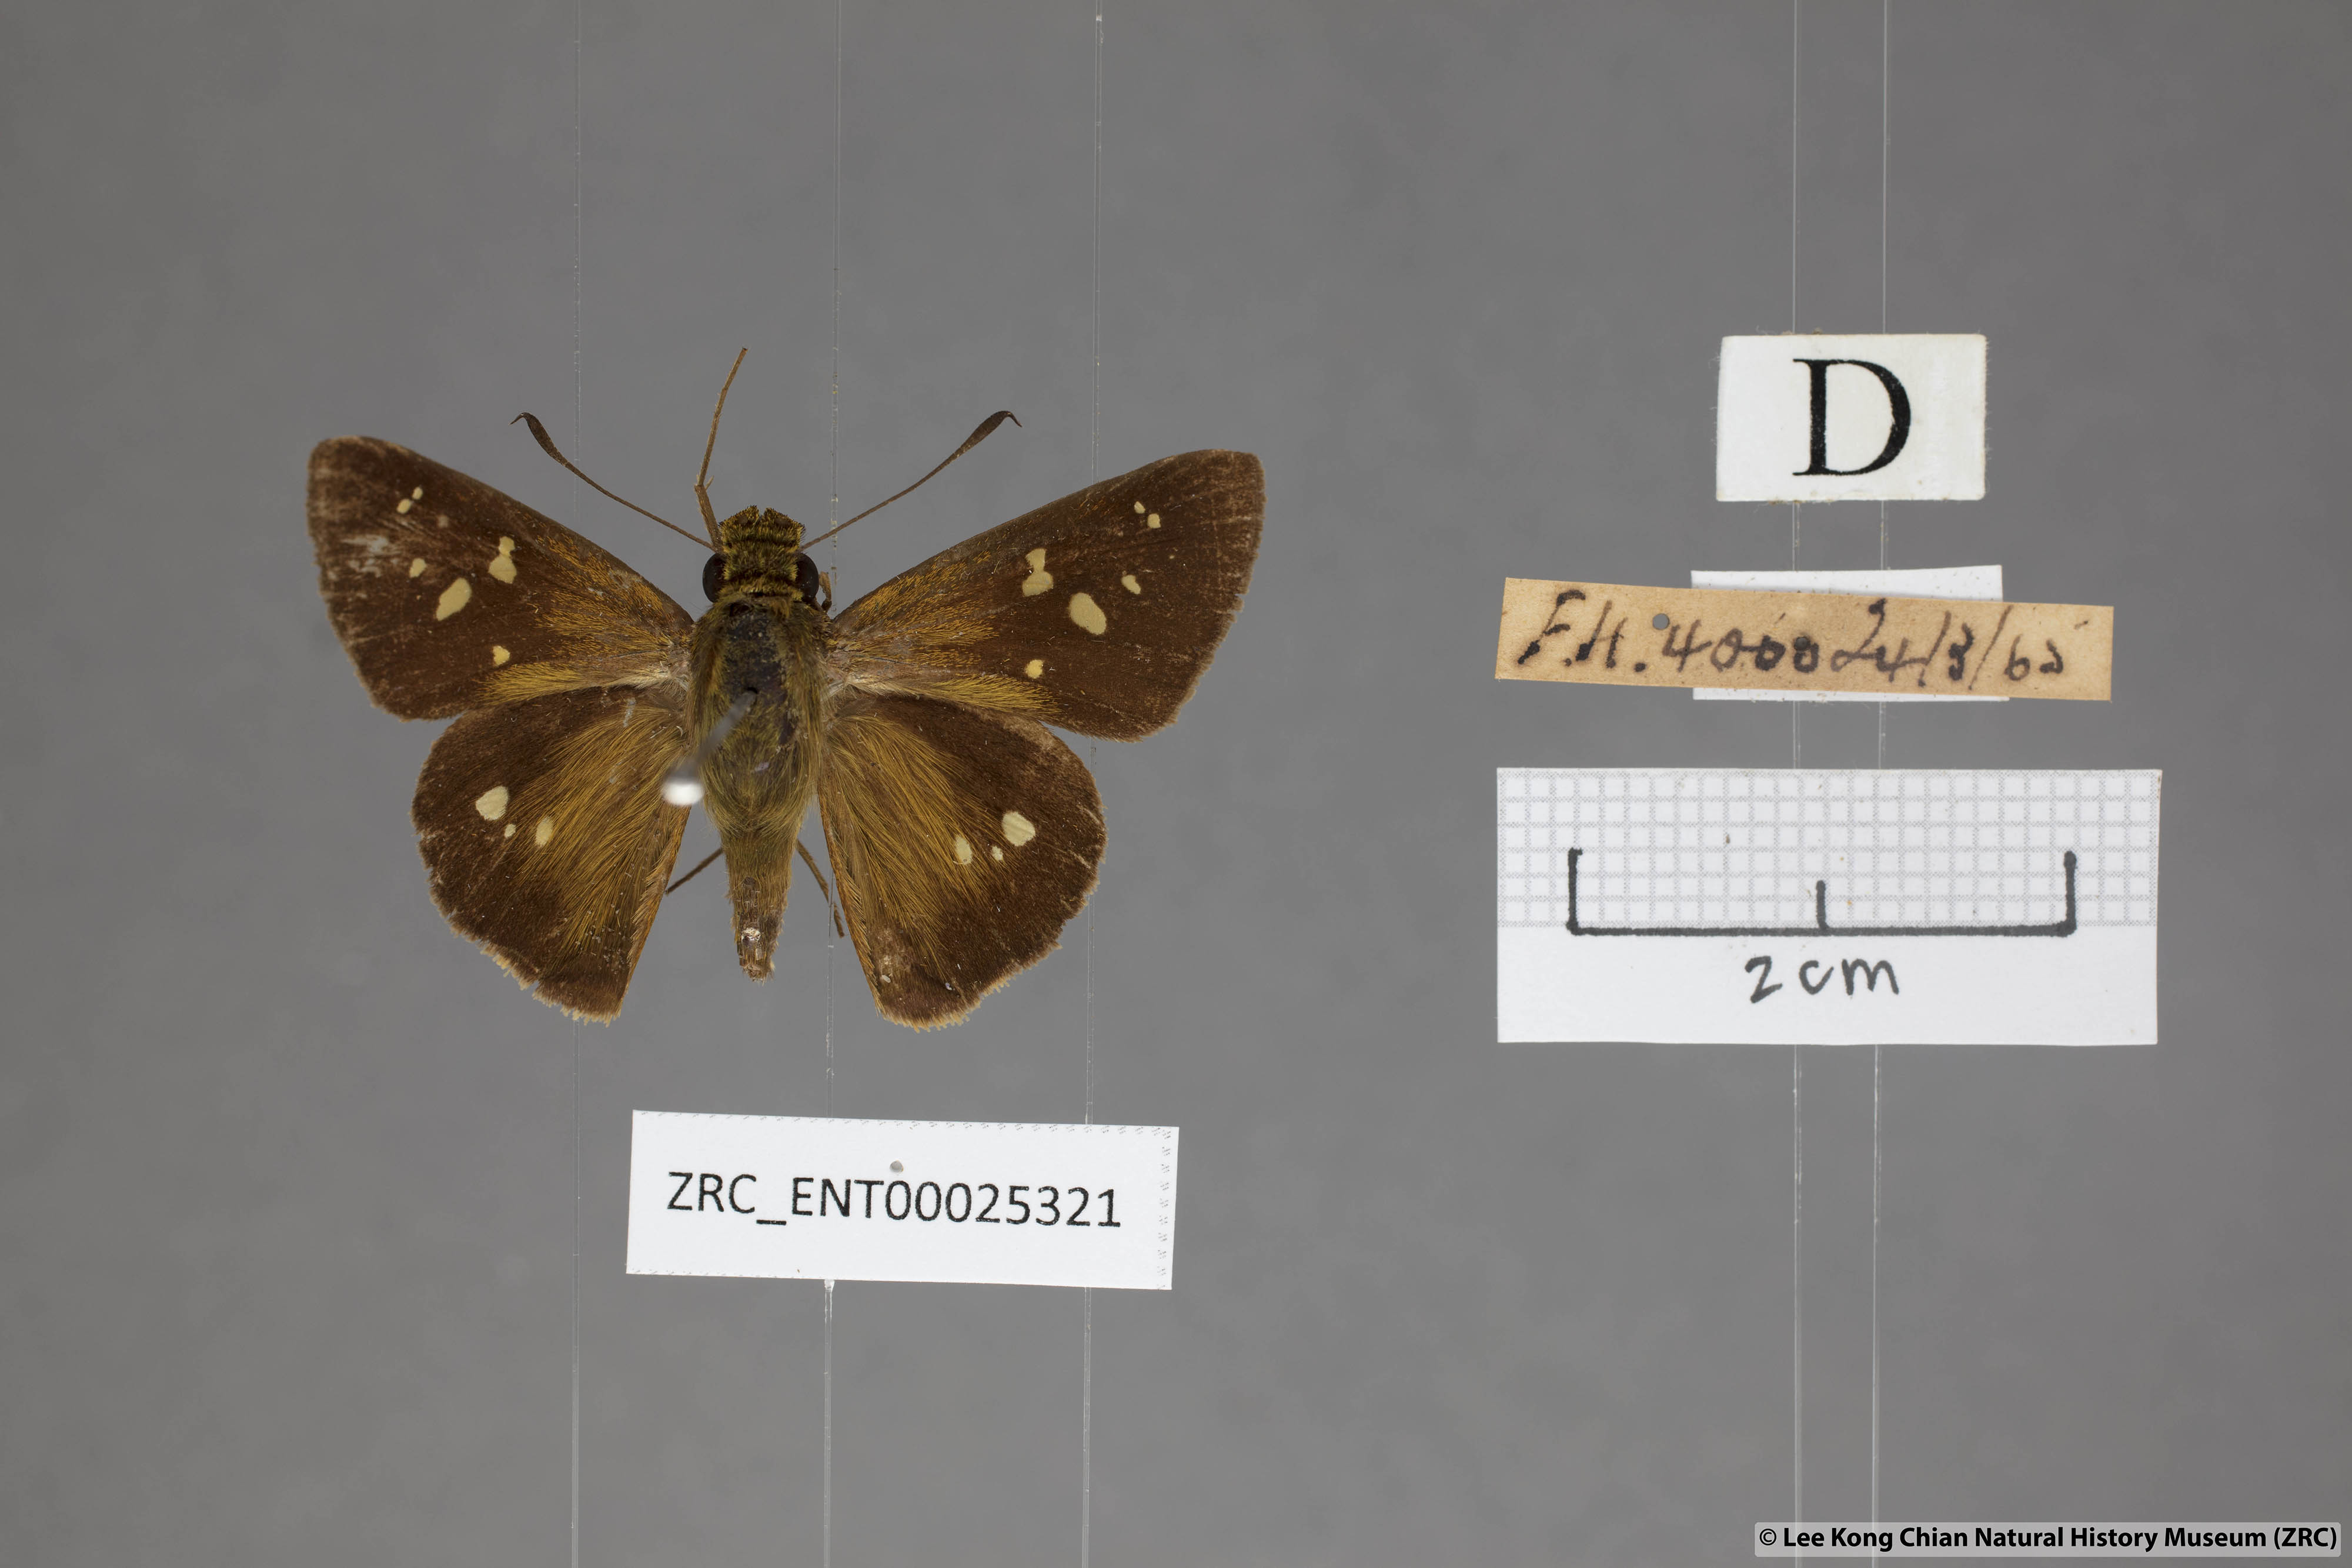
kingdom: Animalia
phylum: Arthropoda
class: Insecta
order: Lepidoptera
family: Hesperiidae
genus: Polytremis
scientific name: Polytremis eltola
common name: Yellow-spot swift
